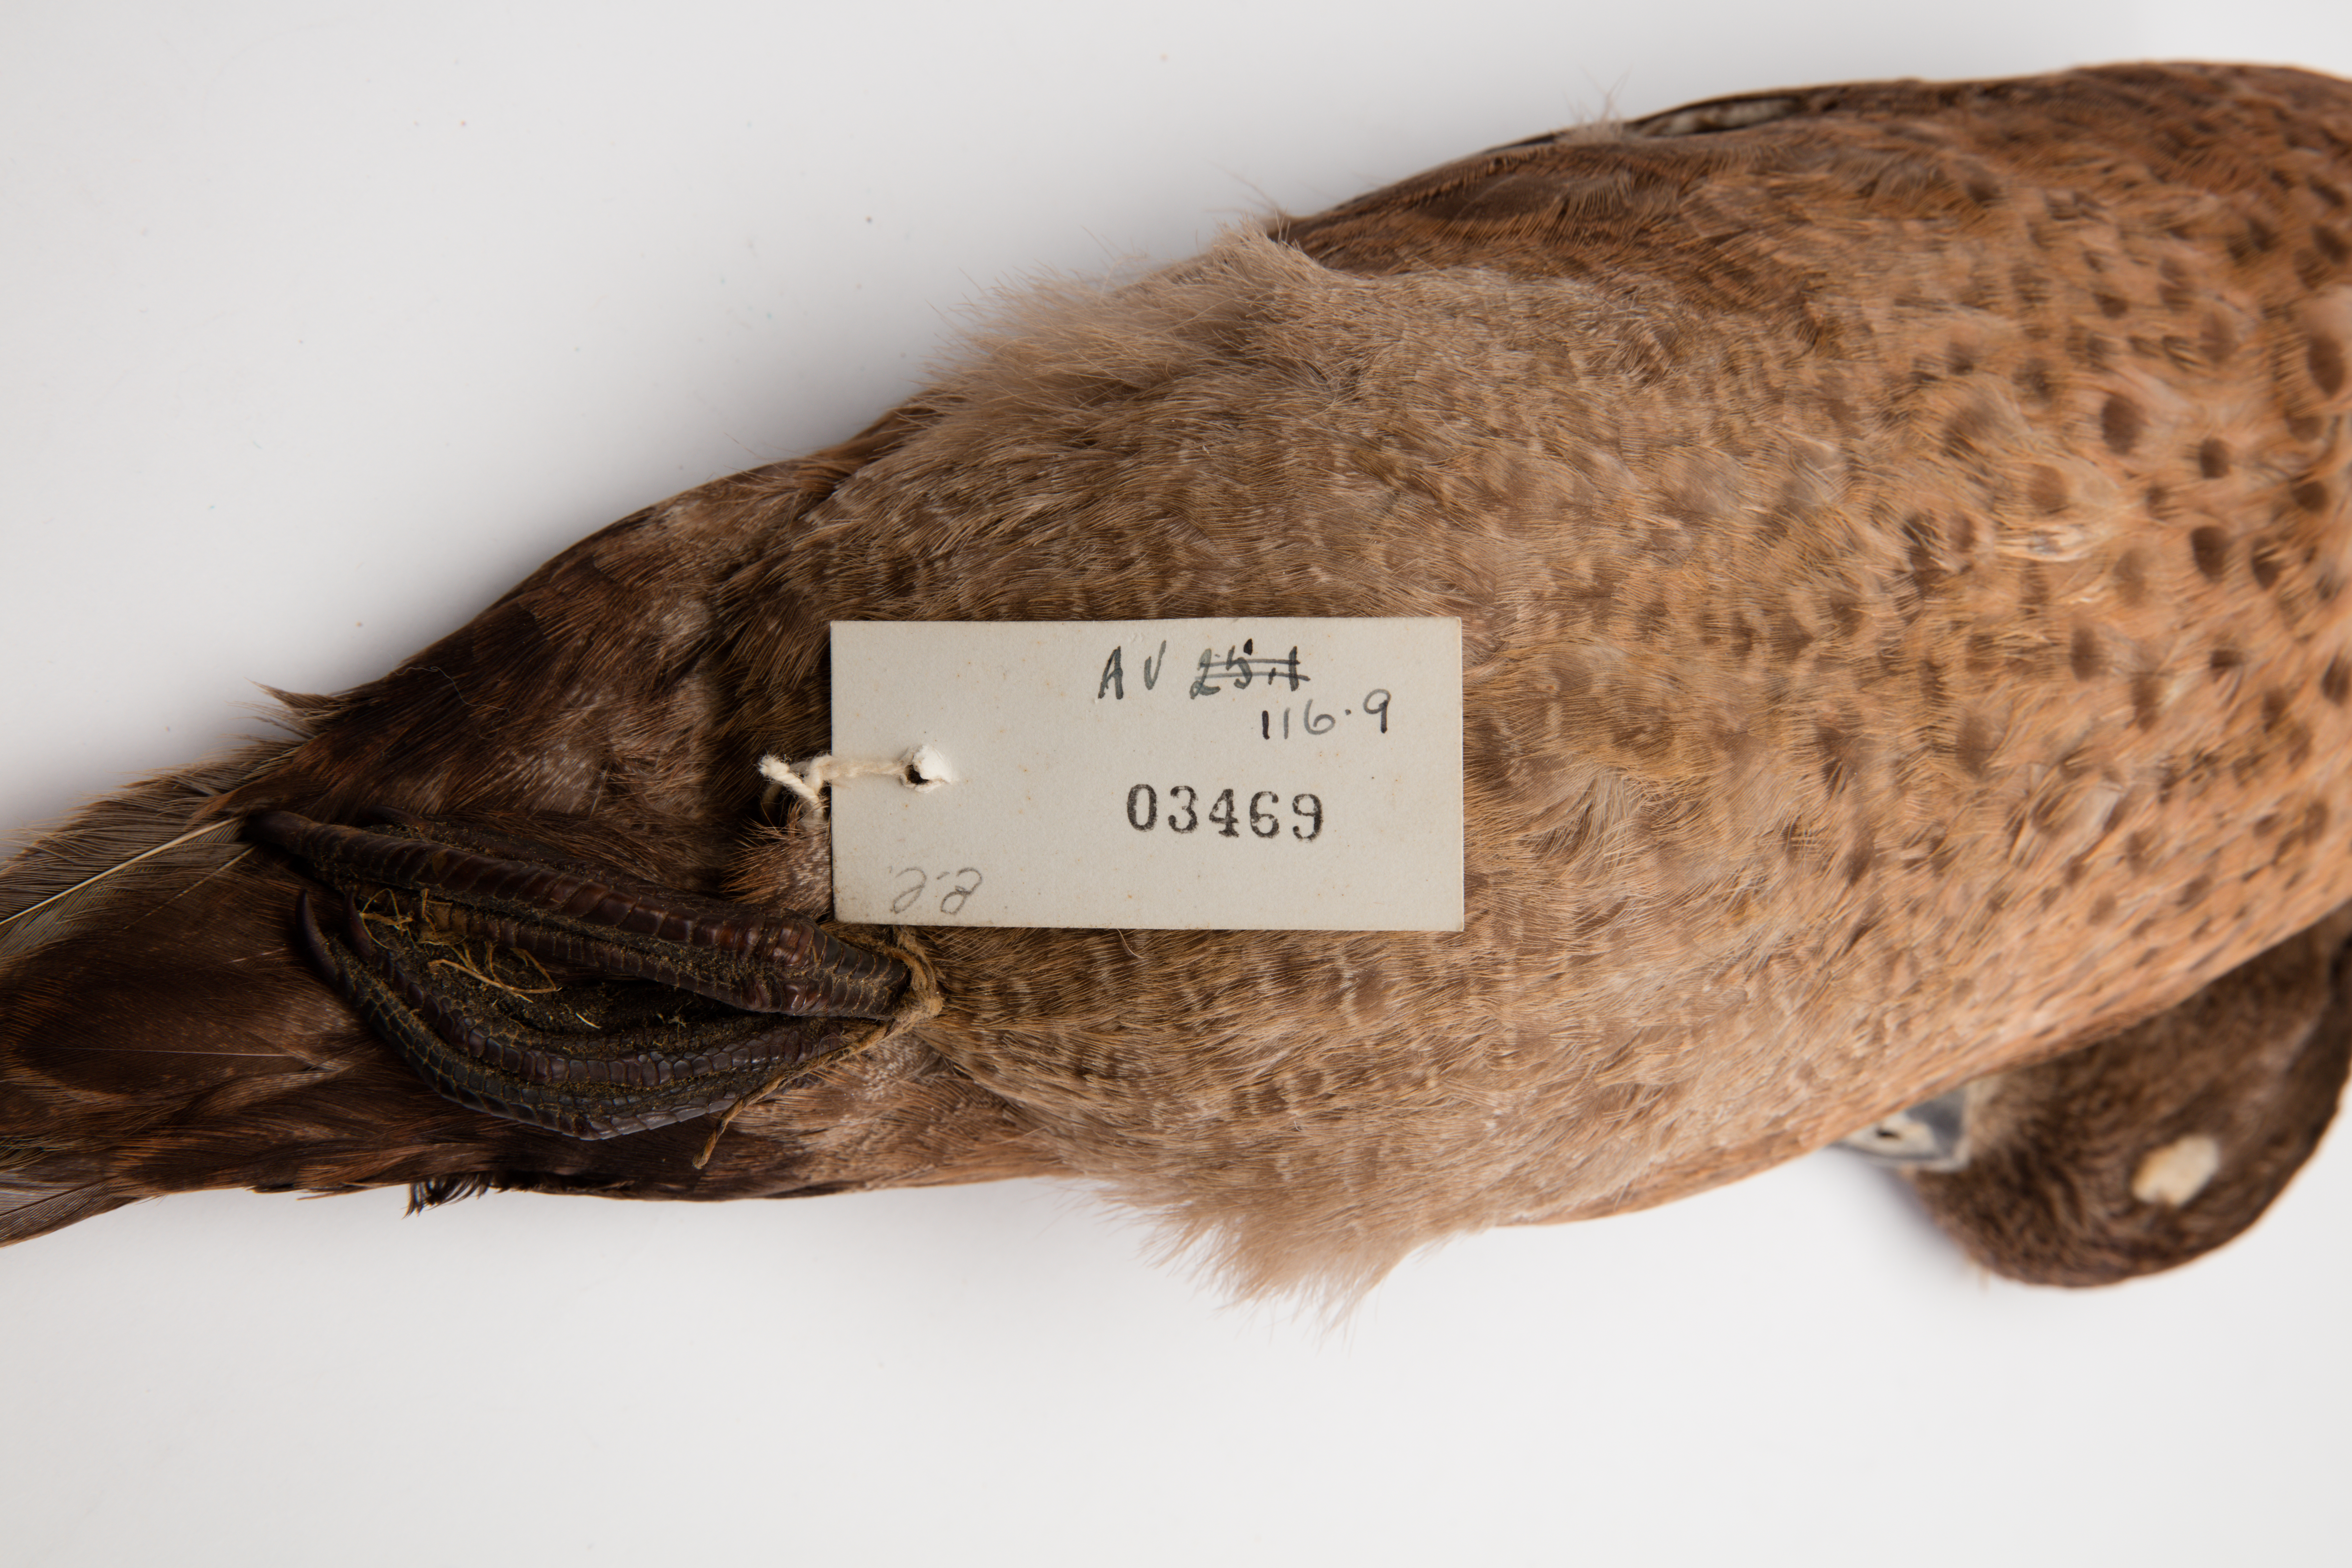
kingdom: Animalia
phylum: Chordata
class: Aves
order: Anseriformes
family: Anatidae
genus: Anas
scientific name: Anas chlorotis
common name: Brown teal
